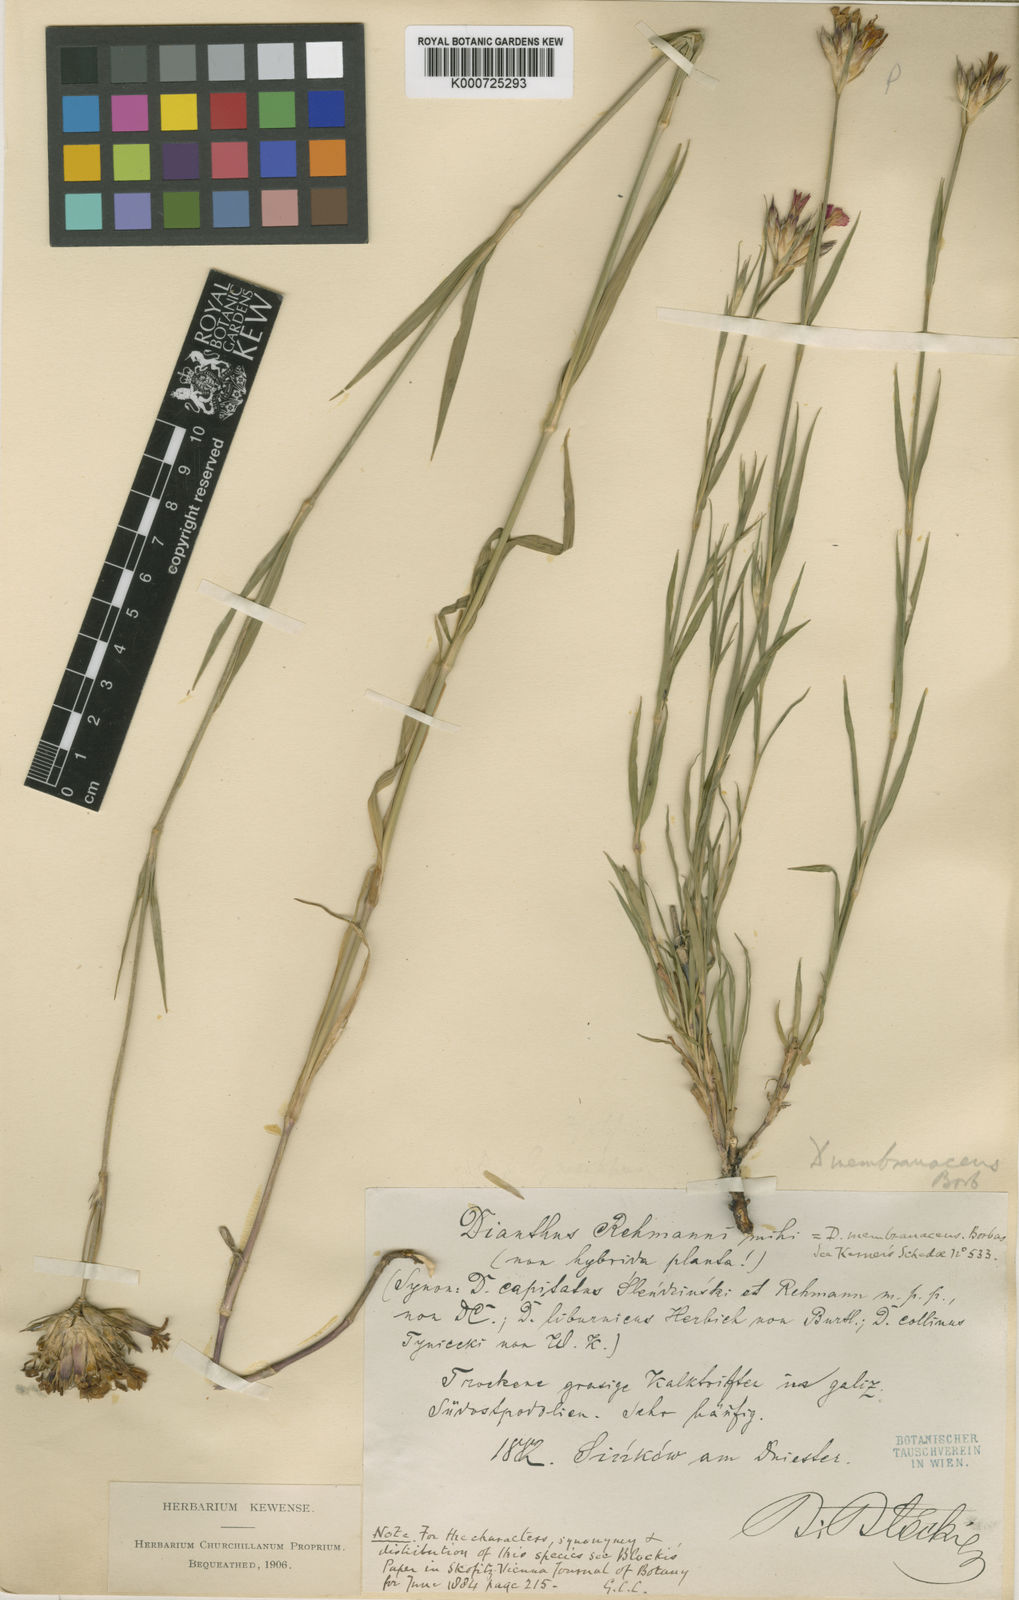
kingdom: Plantae
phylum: Tracheophyta
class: Magnoliopsida
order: Caryophyllales
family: Caryophyllaceae
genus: Dianthus
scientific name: Dianthus
